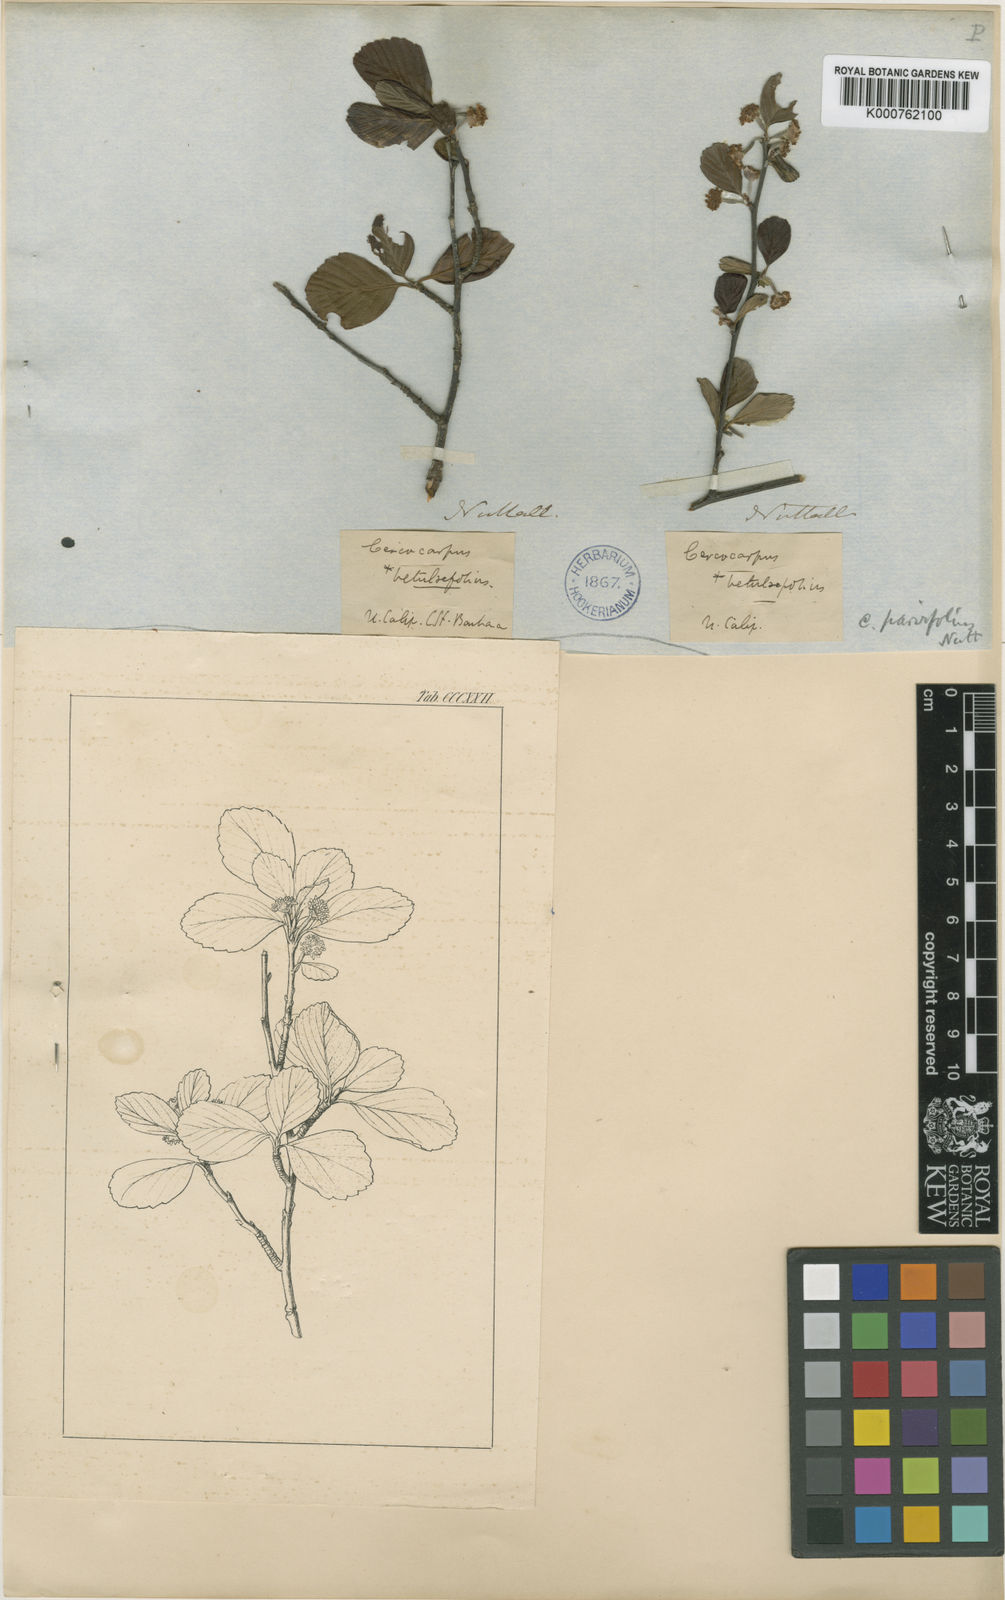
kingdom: Plantae
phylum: Tracheophyta
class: Magnoliopsida
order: Rosales
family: Rosaceae
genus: Cercocarpus
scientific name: Cercocarpus betuloides
